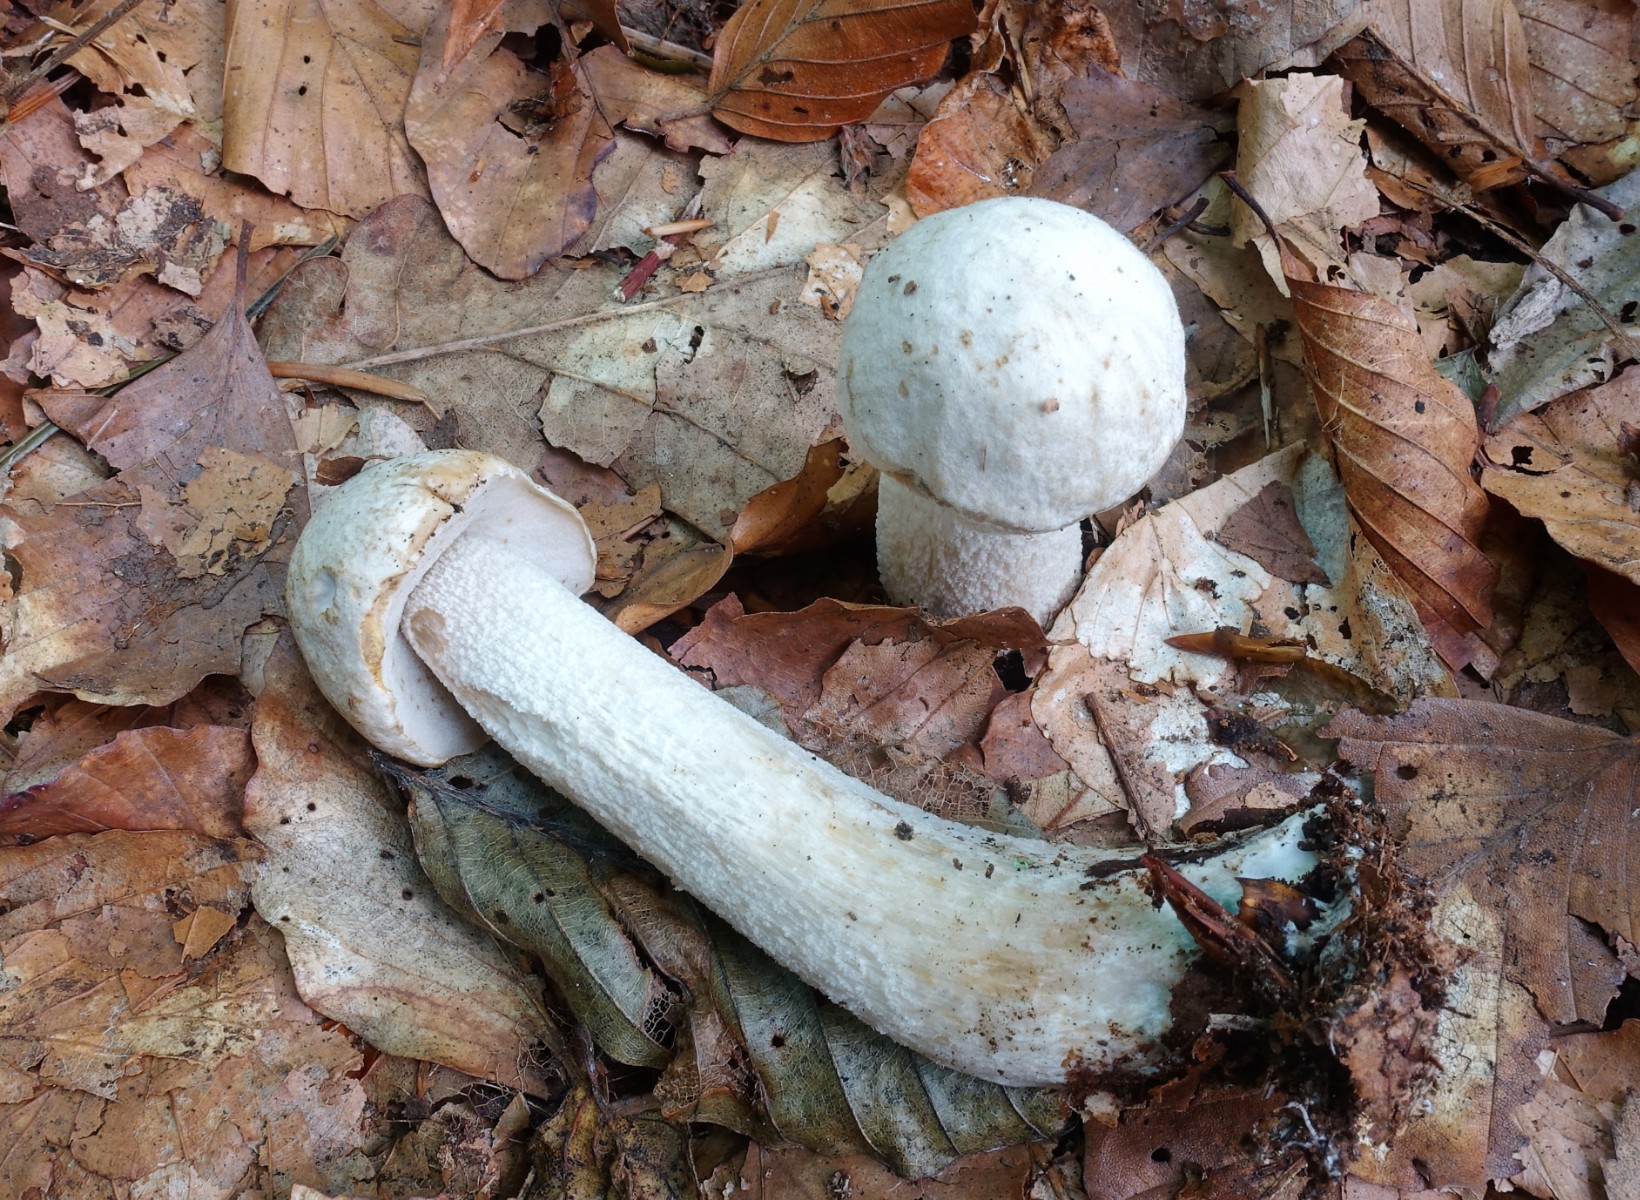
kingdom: Fungi
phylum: Basidiomycota
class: Agaricomycetes
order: Boletales
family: Boletaceae
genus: Leccinum
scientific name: Leccinum versipelle
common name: orange skælrørhat
